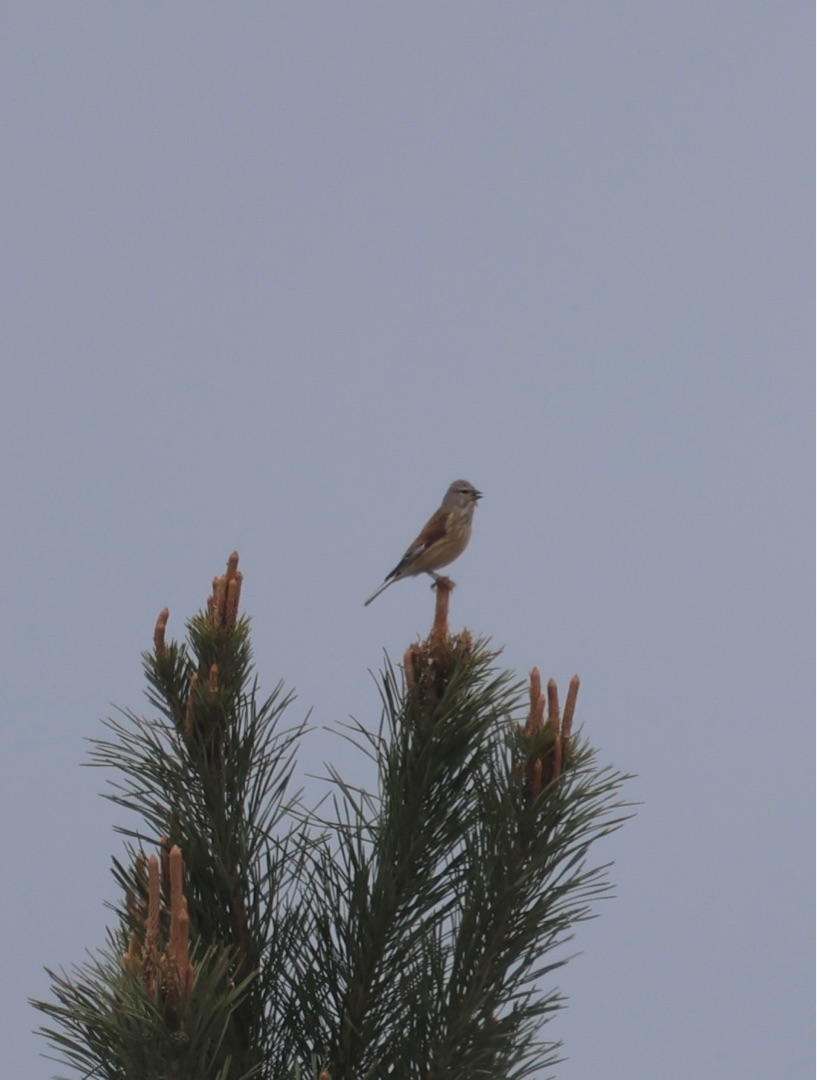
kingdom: Animalia
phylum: Chordata
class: Aves
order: Passeriformes
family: Fringillidae
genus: Linaria
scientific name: Linaria cannabina
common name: Tornirisk
